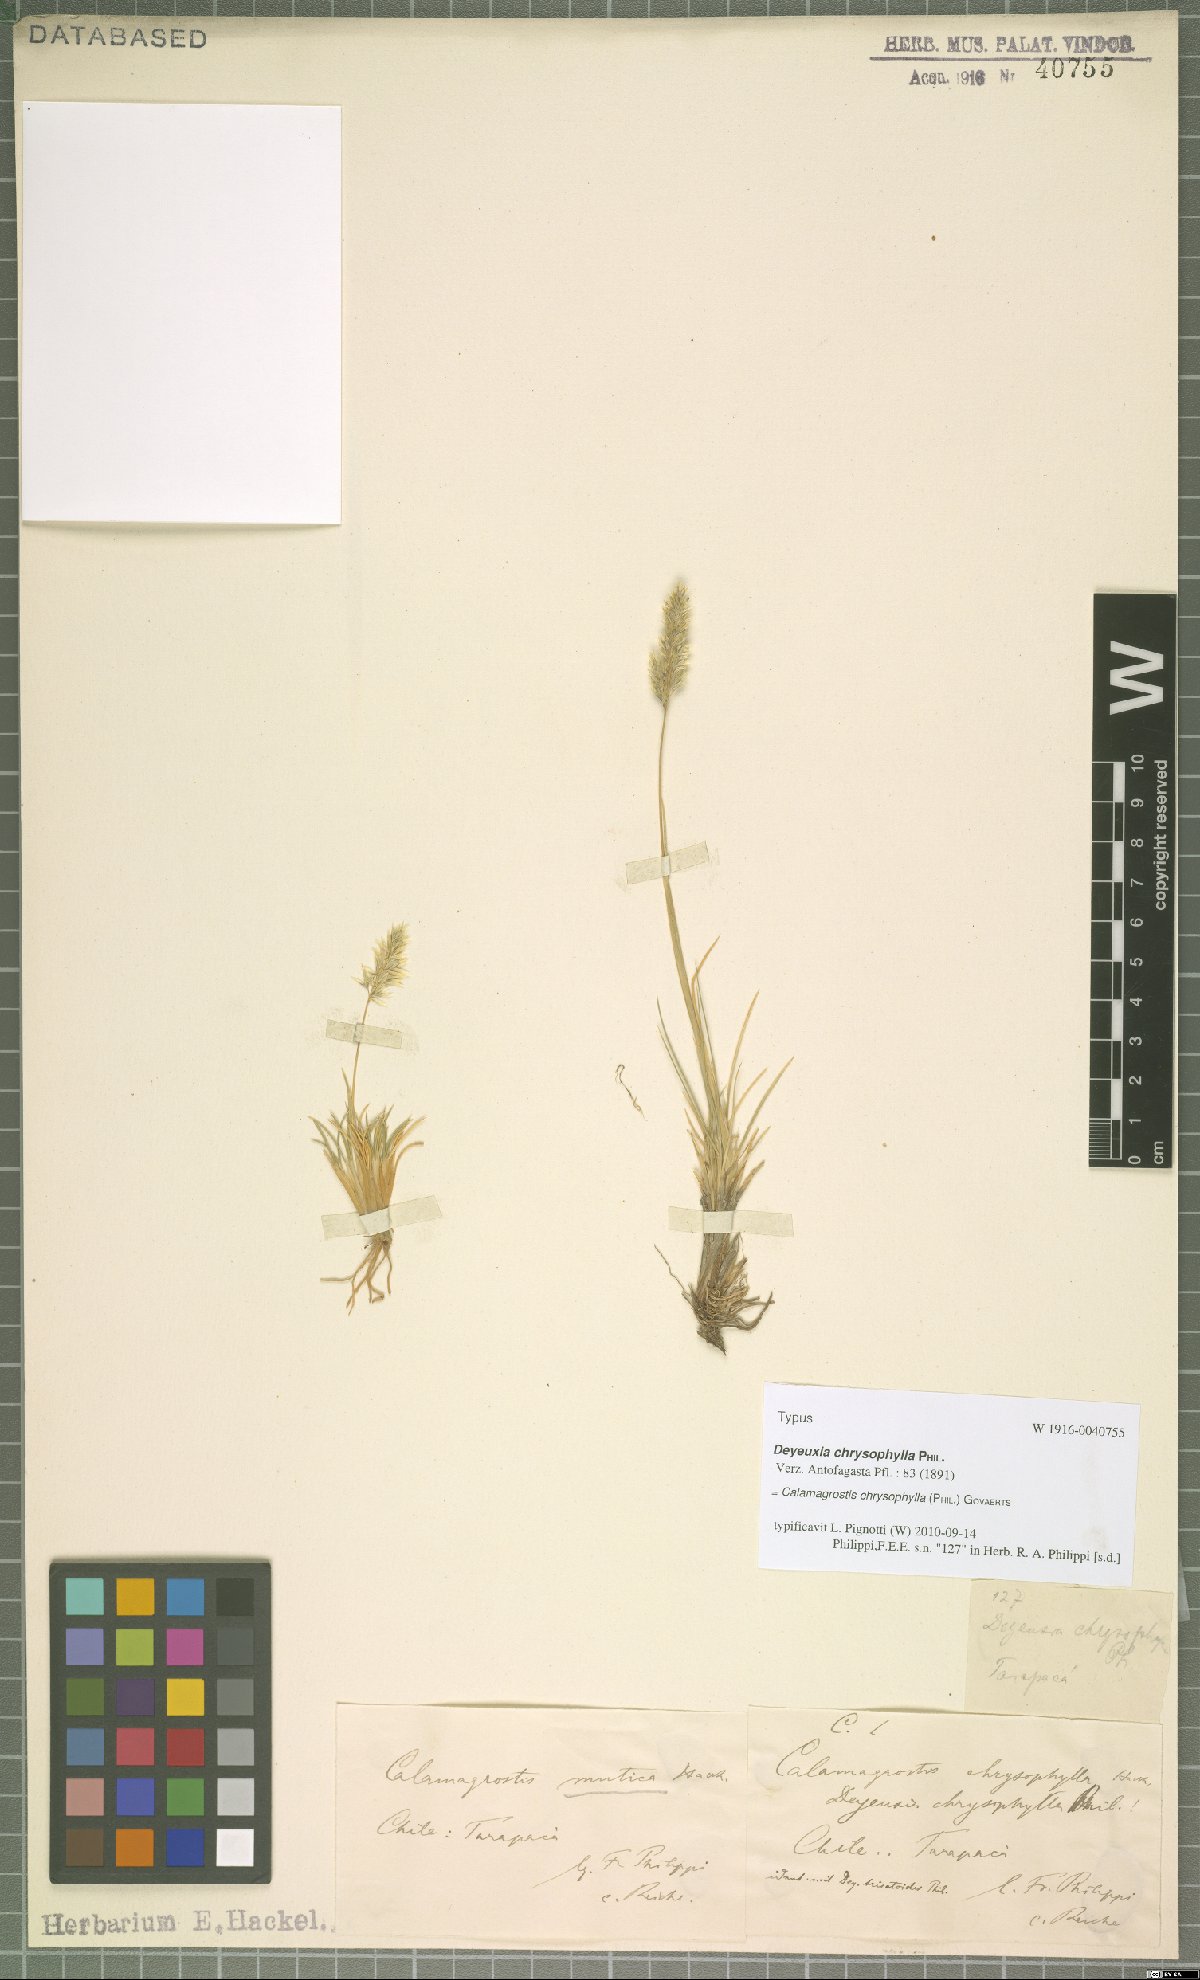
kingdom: Plantae
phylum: Tracheophyta
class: Liliopsida
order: Poales
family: Poaceae
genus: Cinnagrostis
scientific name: Cinnagrostis chrysophylla
